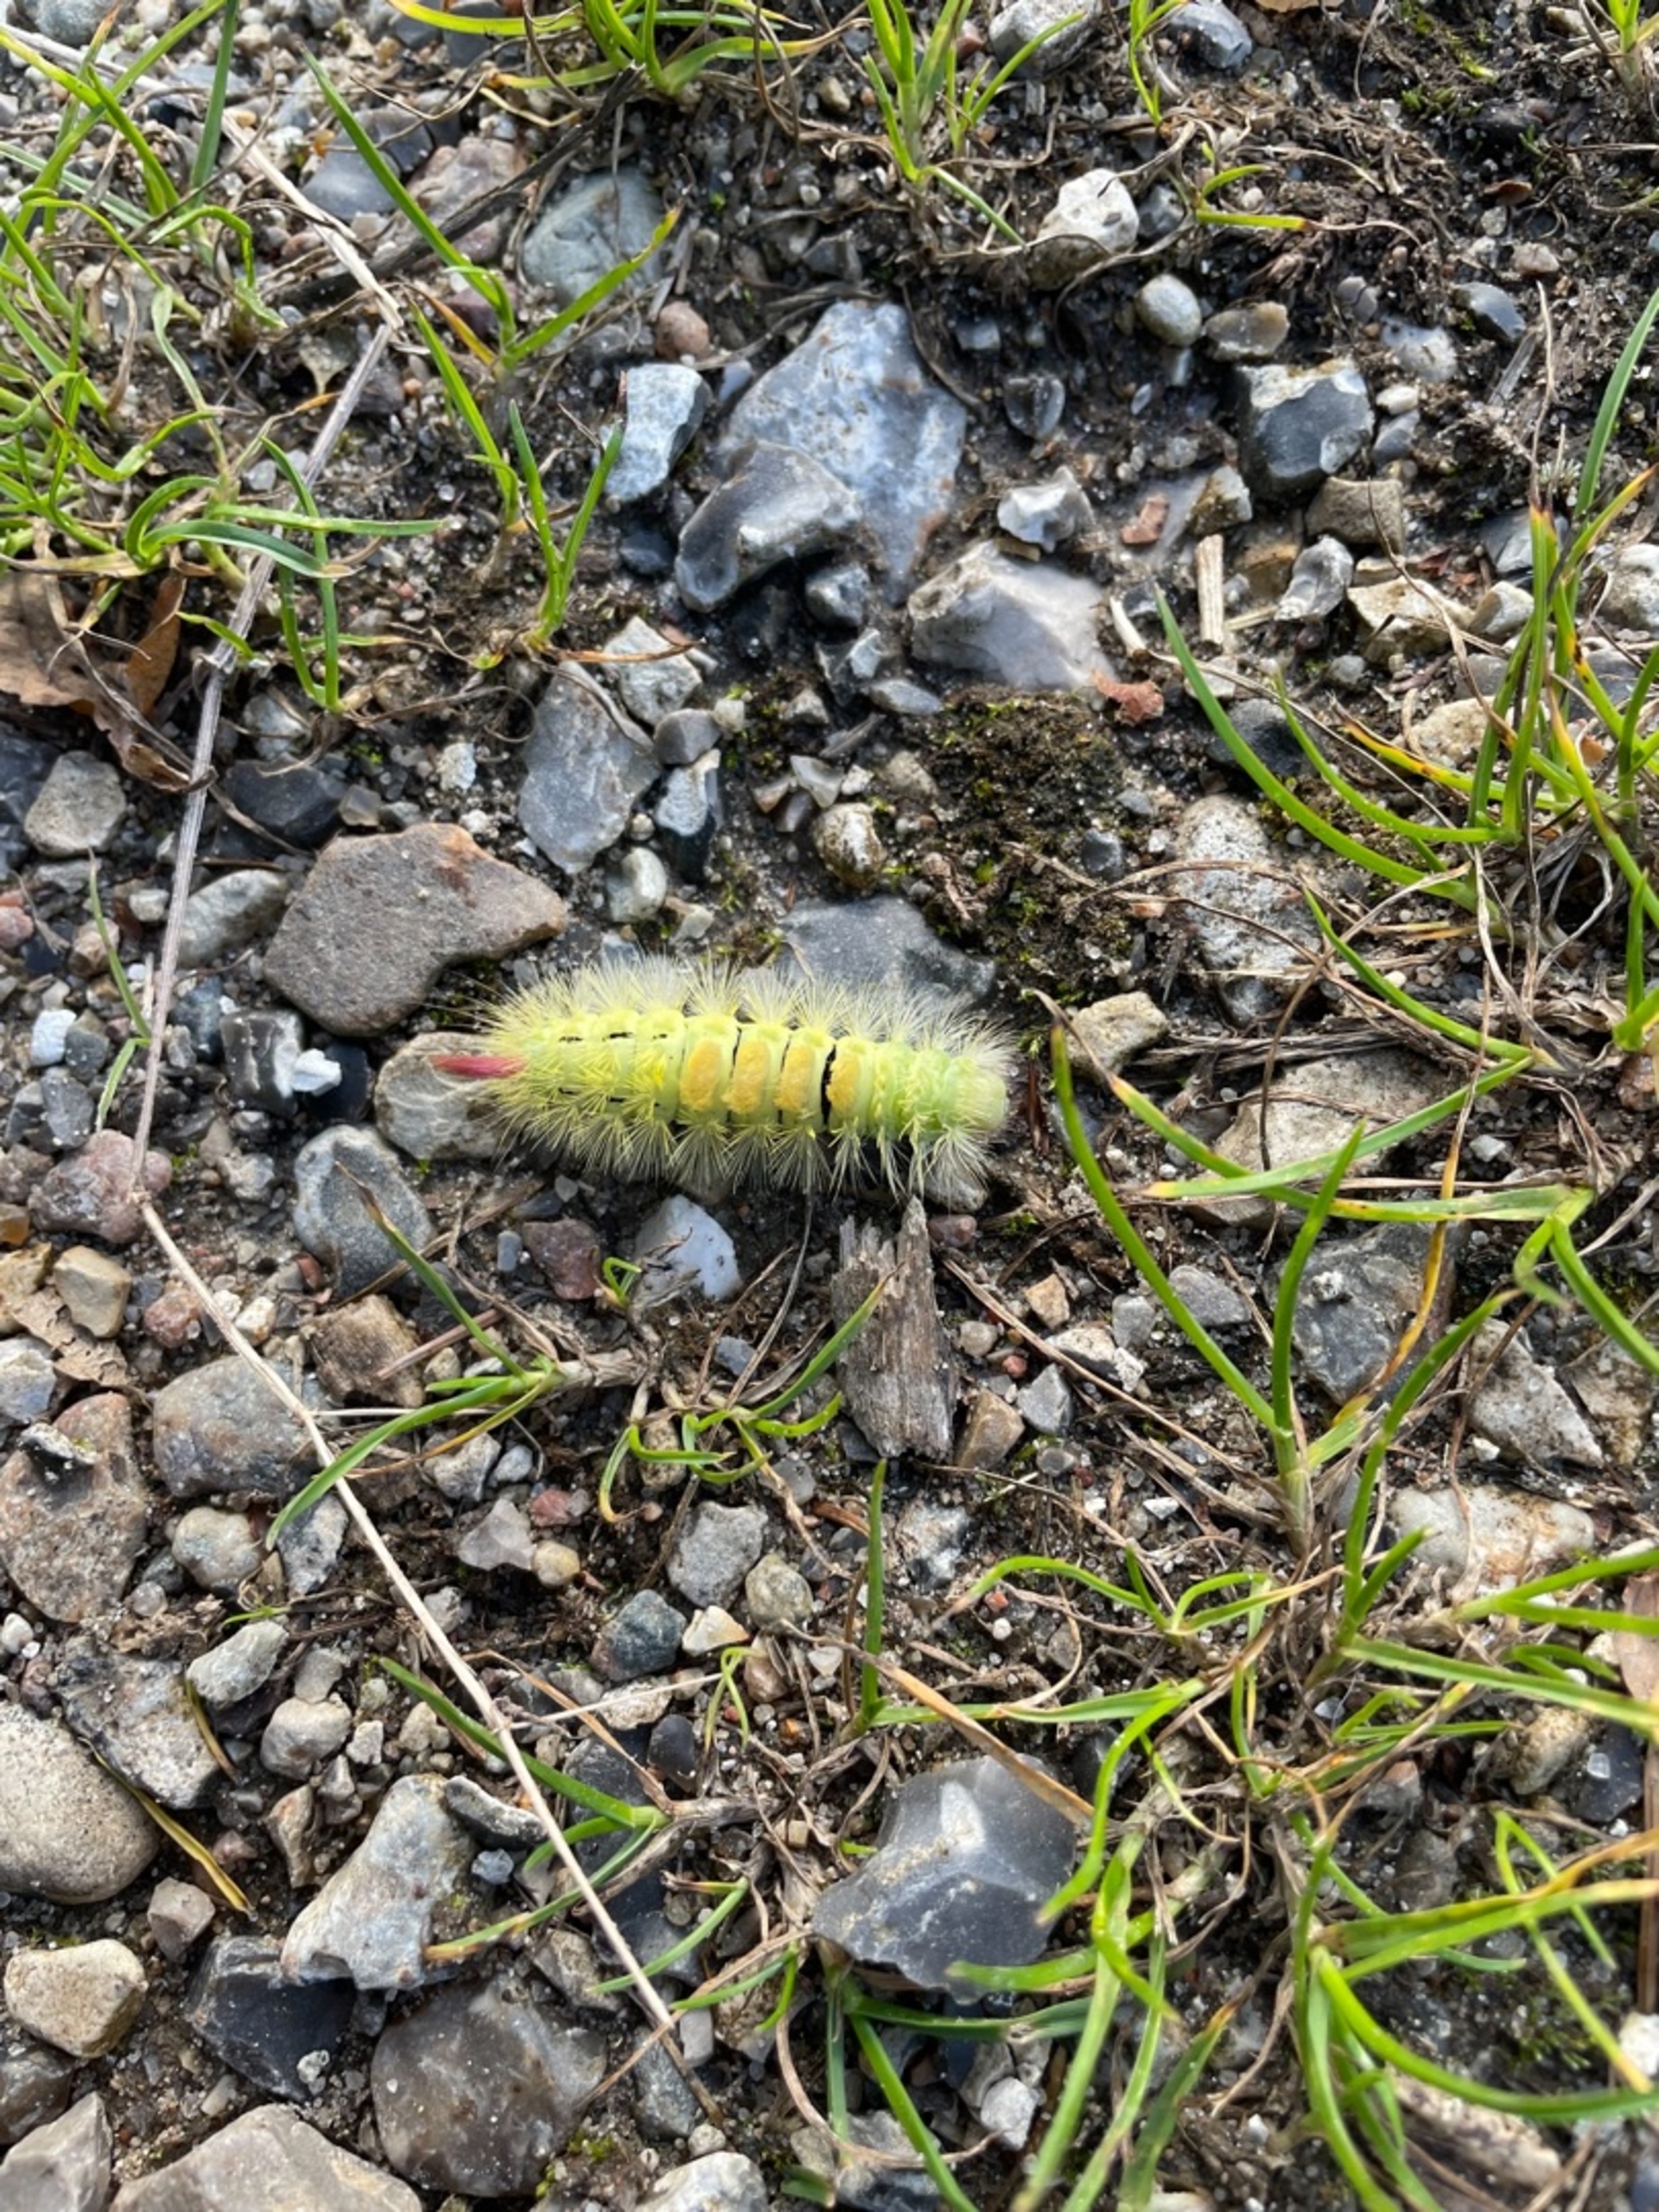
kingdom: Animalia
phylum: Arthropoda
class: Insecta
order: Lepidoptera
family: Erebidae
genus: Calliteara
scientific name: Calliteara pudibunda
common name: Bøgenonne
